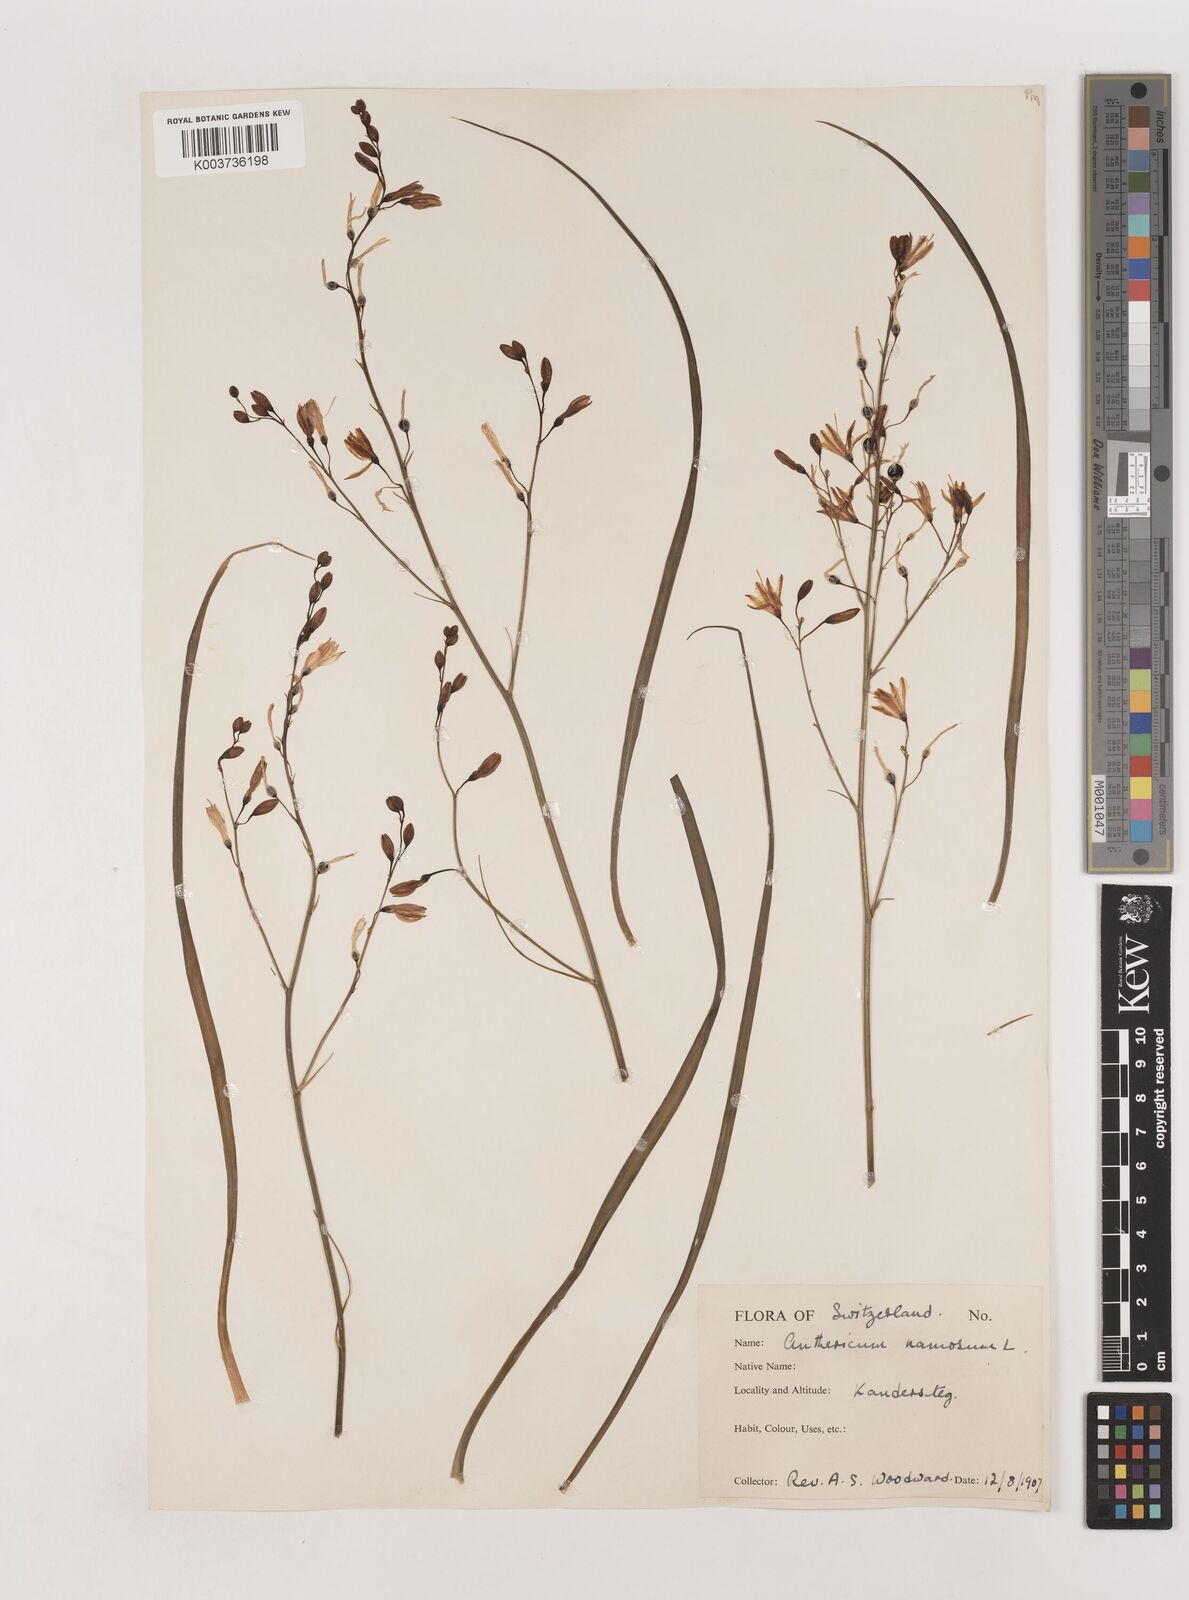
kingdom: Plantae
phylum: Tracheophyta
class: Liliopsida
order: Asparagales
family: Asparagaceae
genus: Anthericum
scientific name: Anthericum ramosum
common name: Branched st. bernard's-lily
